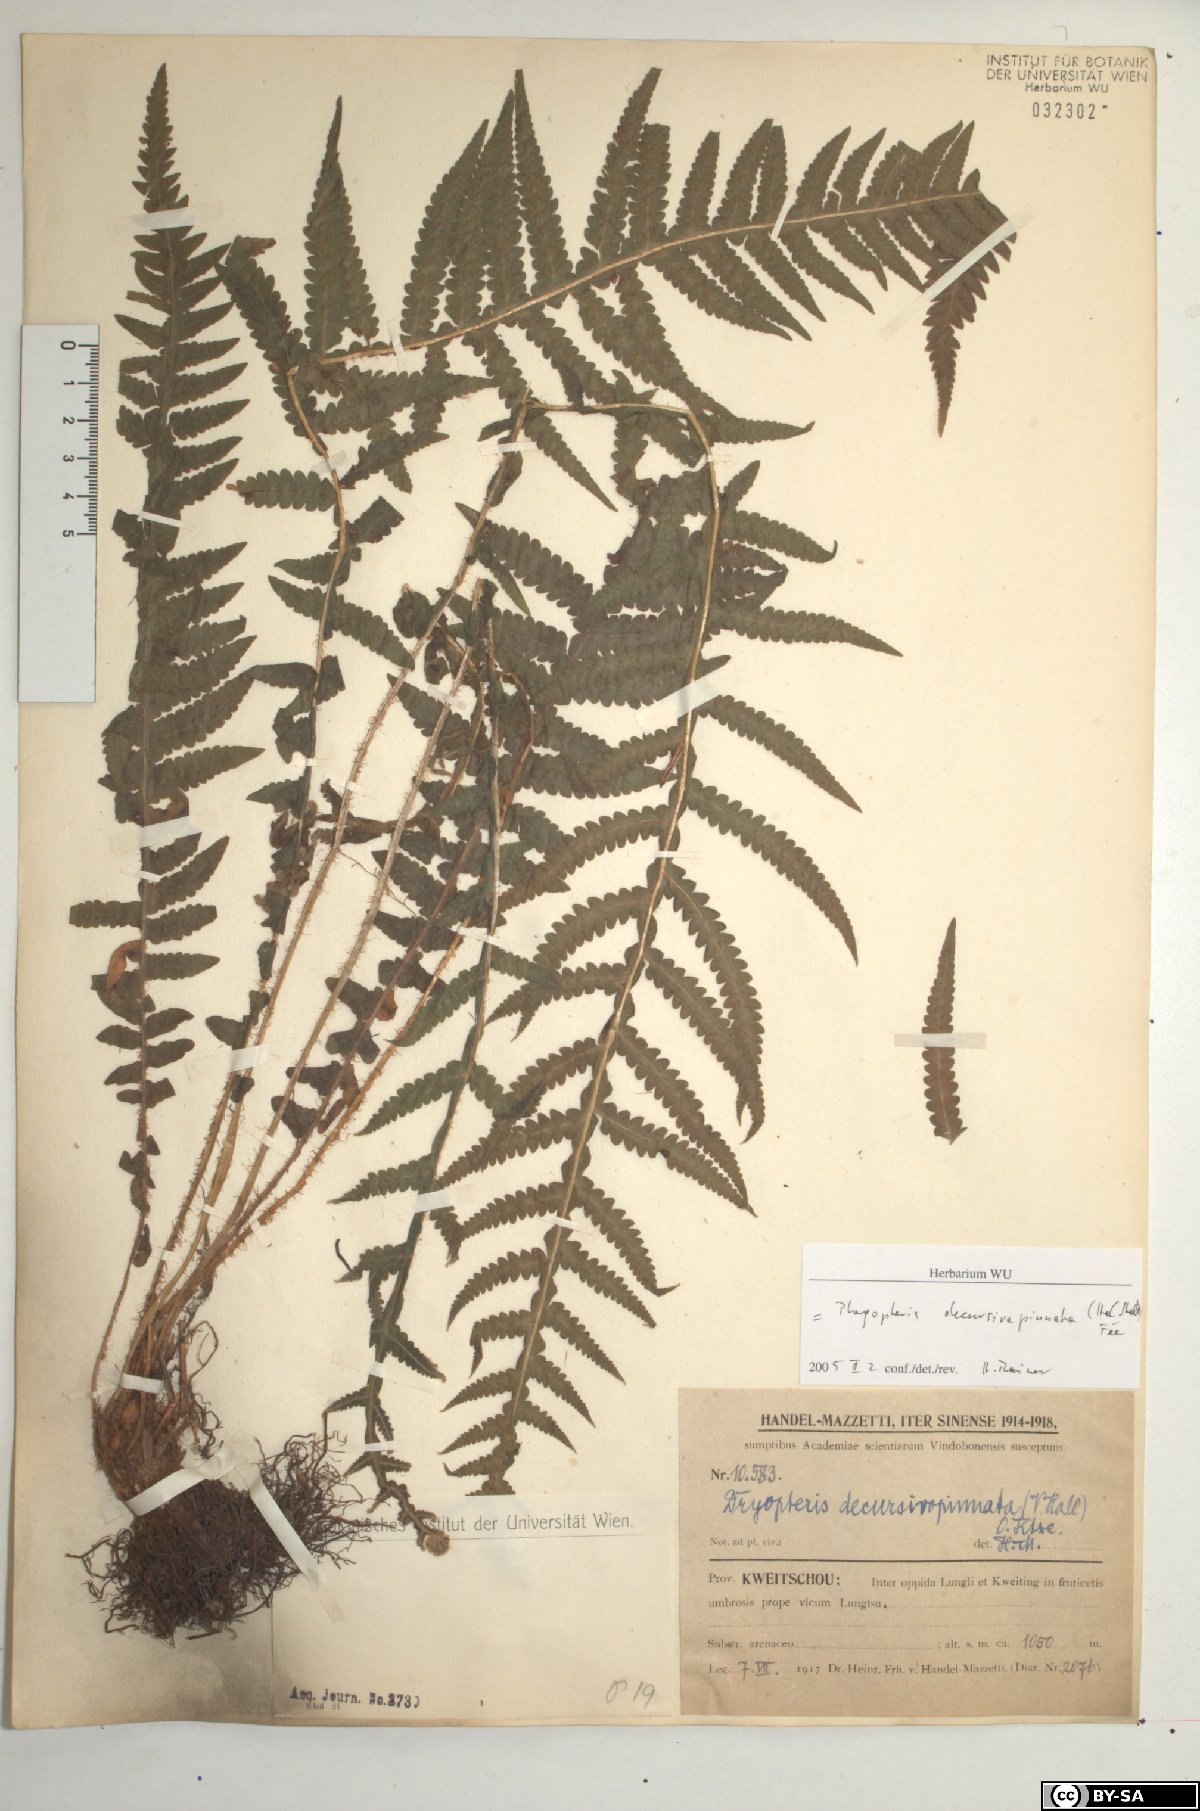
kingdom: Plantae
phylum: Tracheophyta
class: Polypodiopsida
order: Polypodiales
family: Thelypteridaceae
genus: Phegopteris
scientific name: Phegopteris decursive-pinnata
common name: Japanese beech fern
